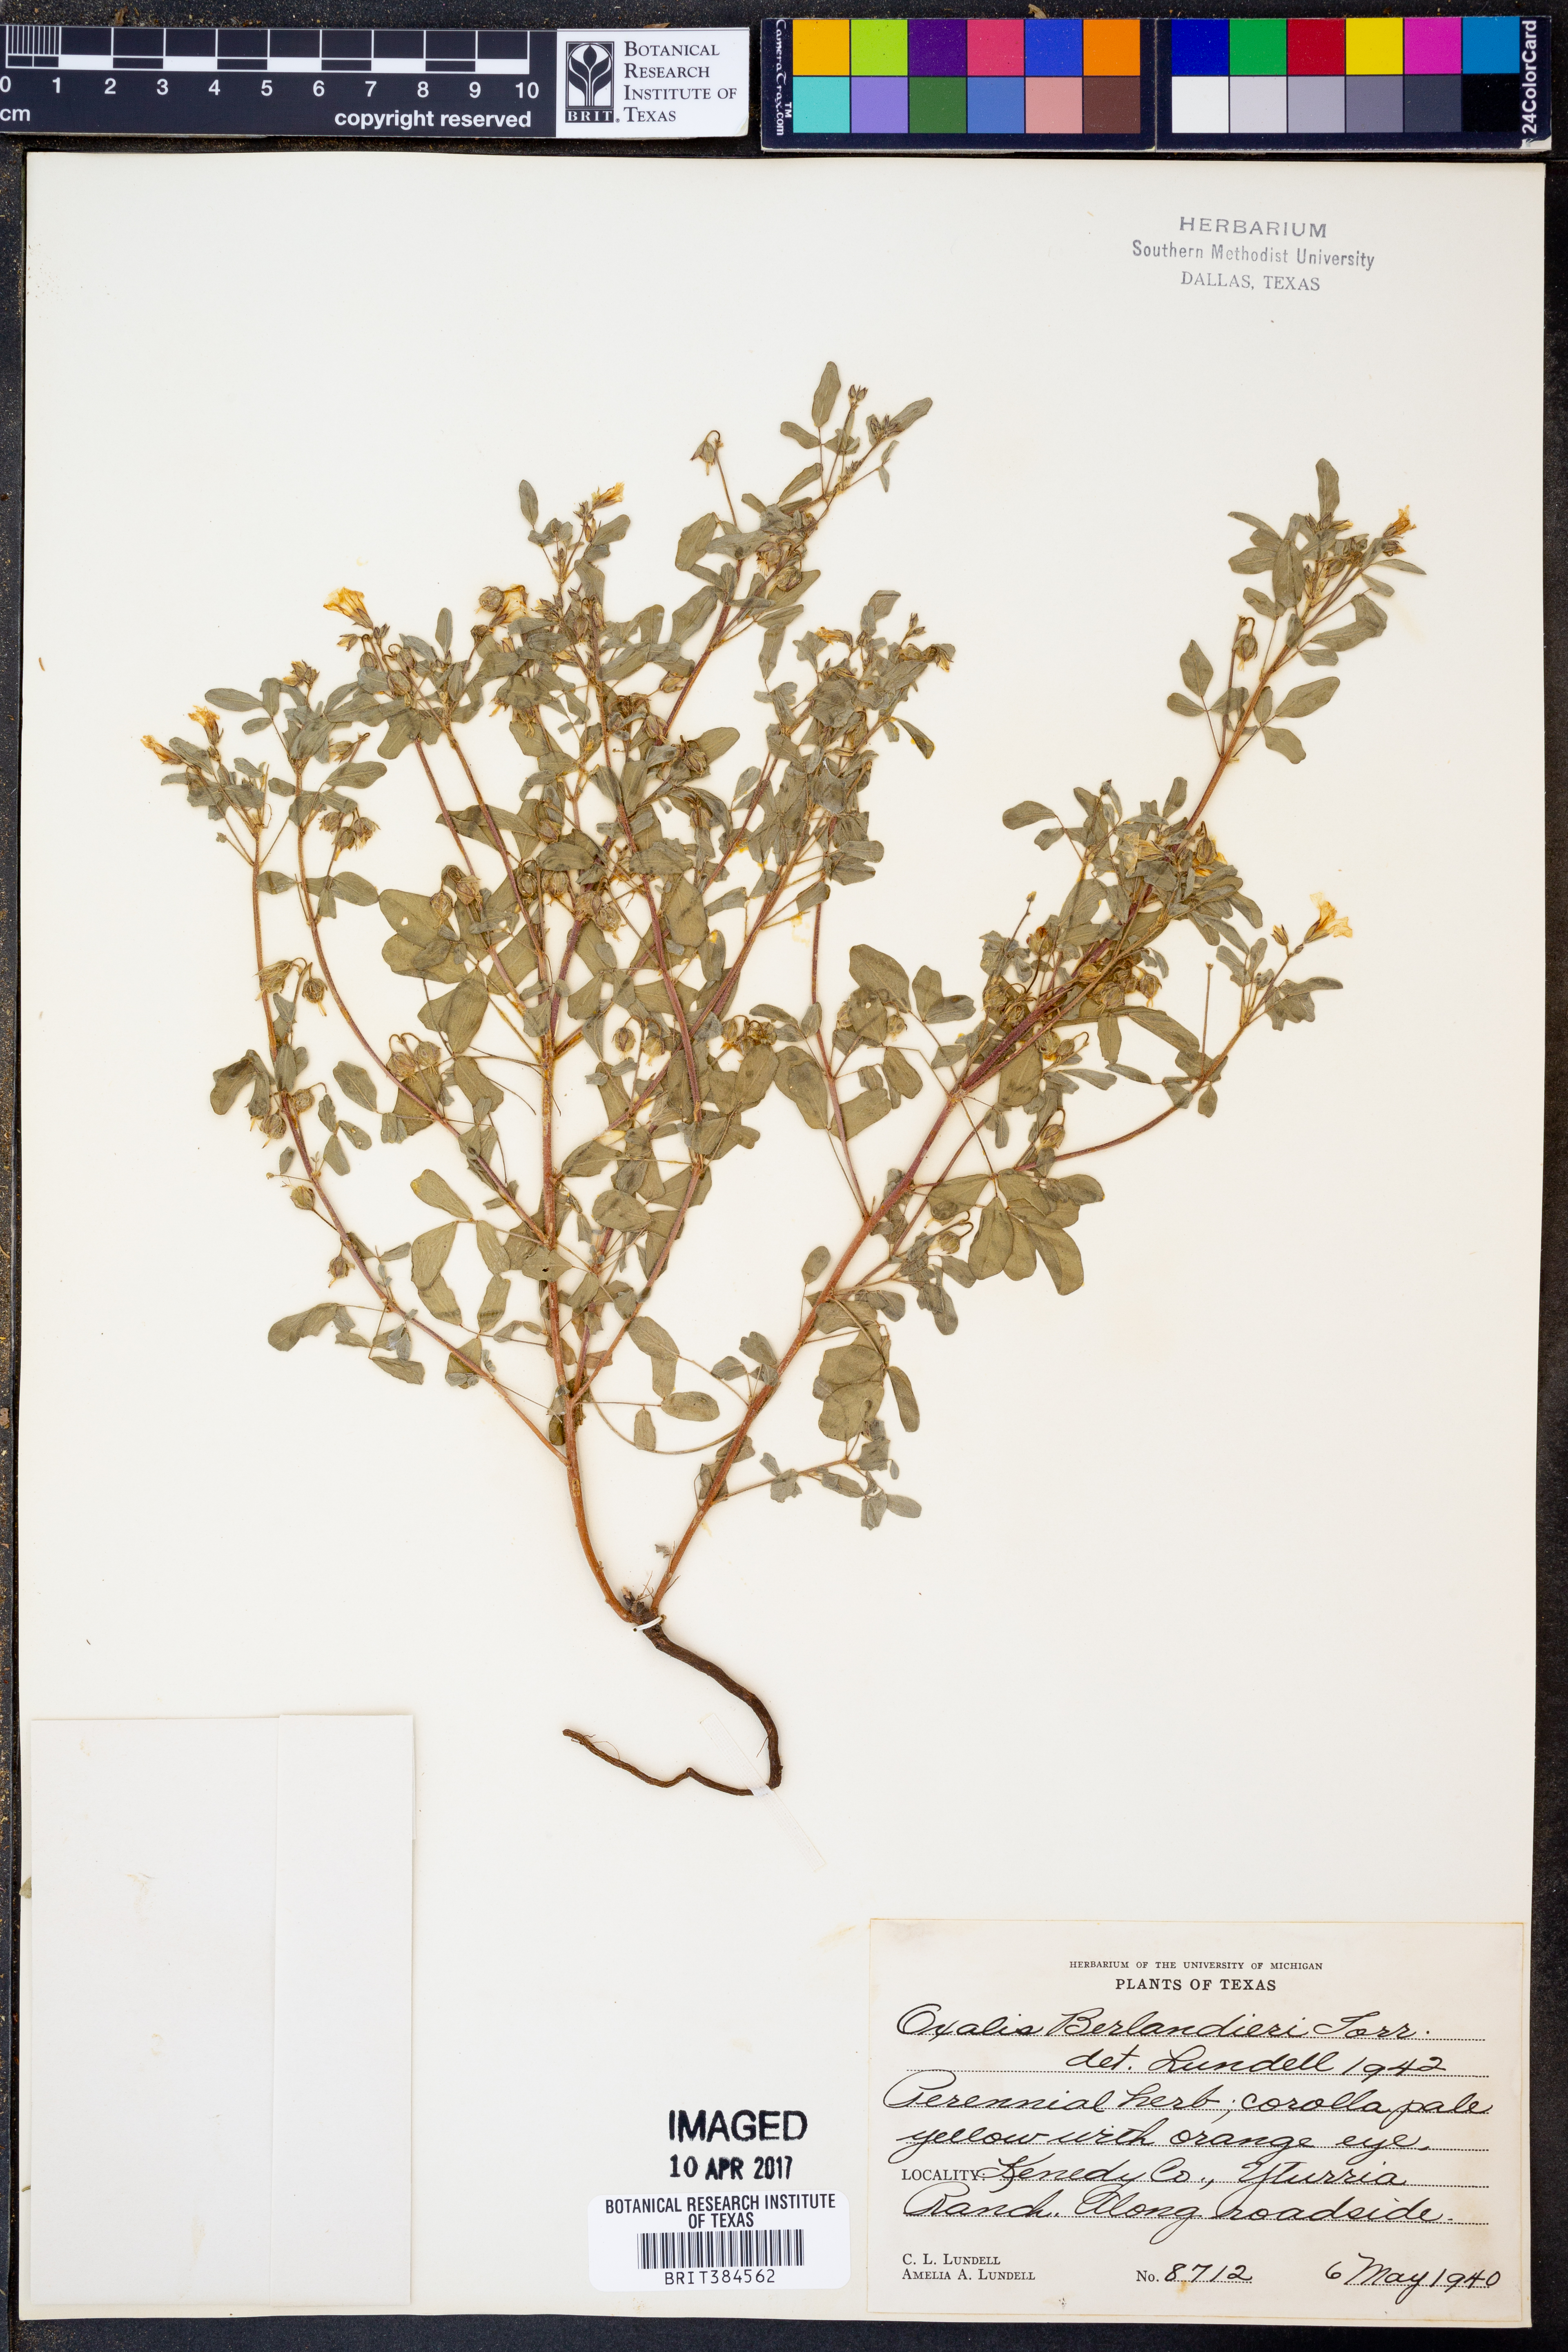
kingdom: Plantae
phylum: Tracheophyta
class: Magnoliopsida
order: Oxalidales
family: Oxalidaceae
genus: Oxalis
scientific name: Oxalis frutescens
